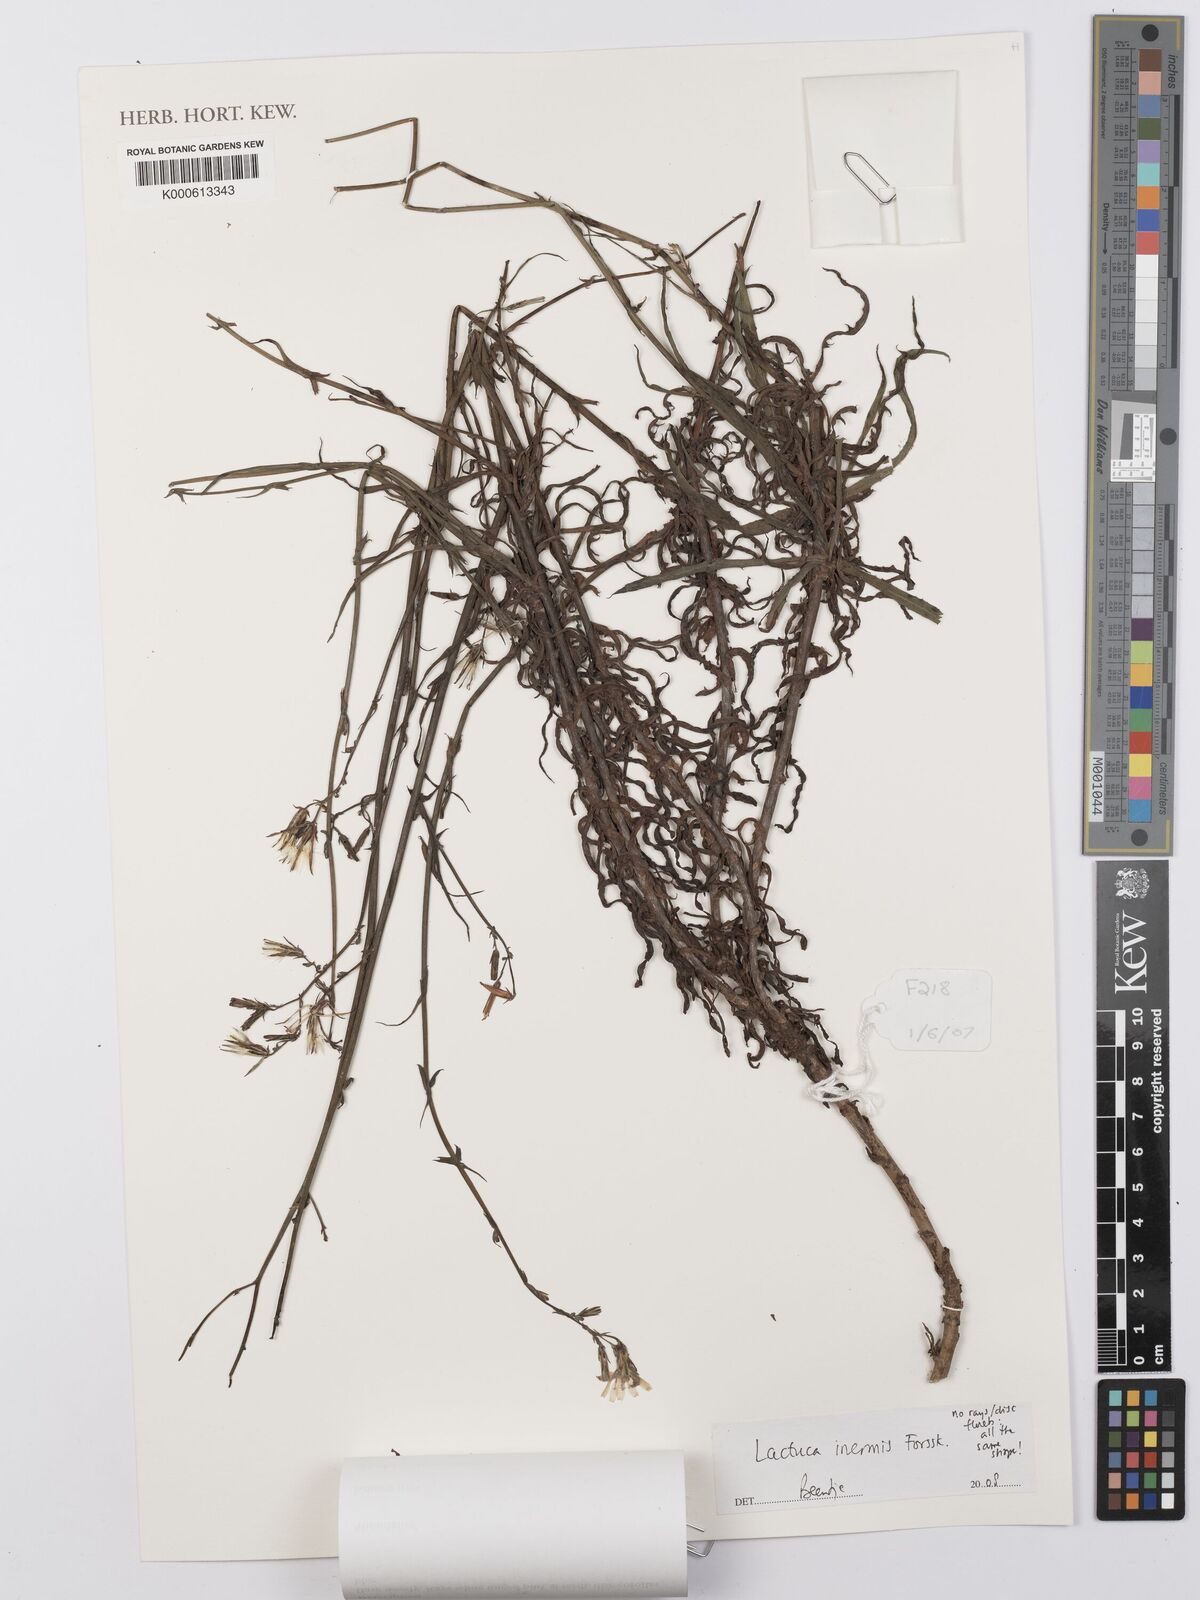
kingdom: Plantae
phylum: Tracheophyta
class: Magnoliopsida
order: Asterales
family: Asteraceae
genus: Lactuca
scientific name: Lactuca inermis
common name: Wild lettuce
